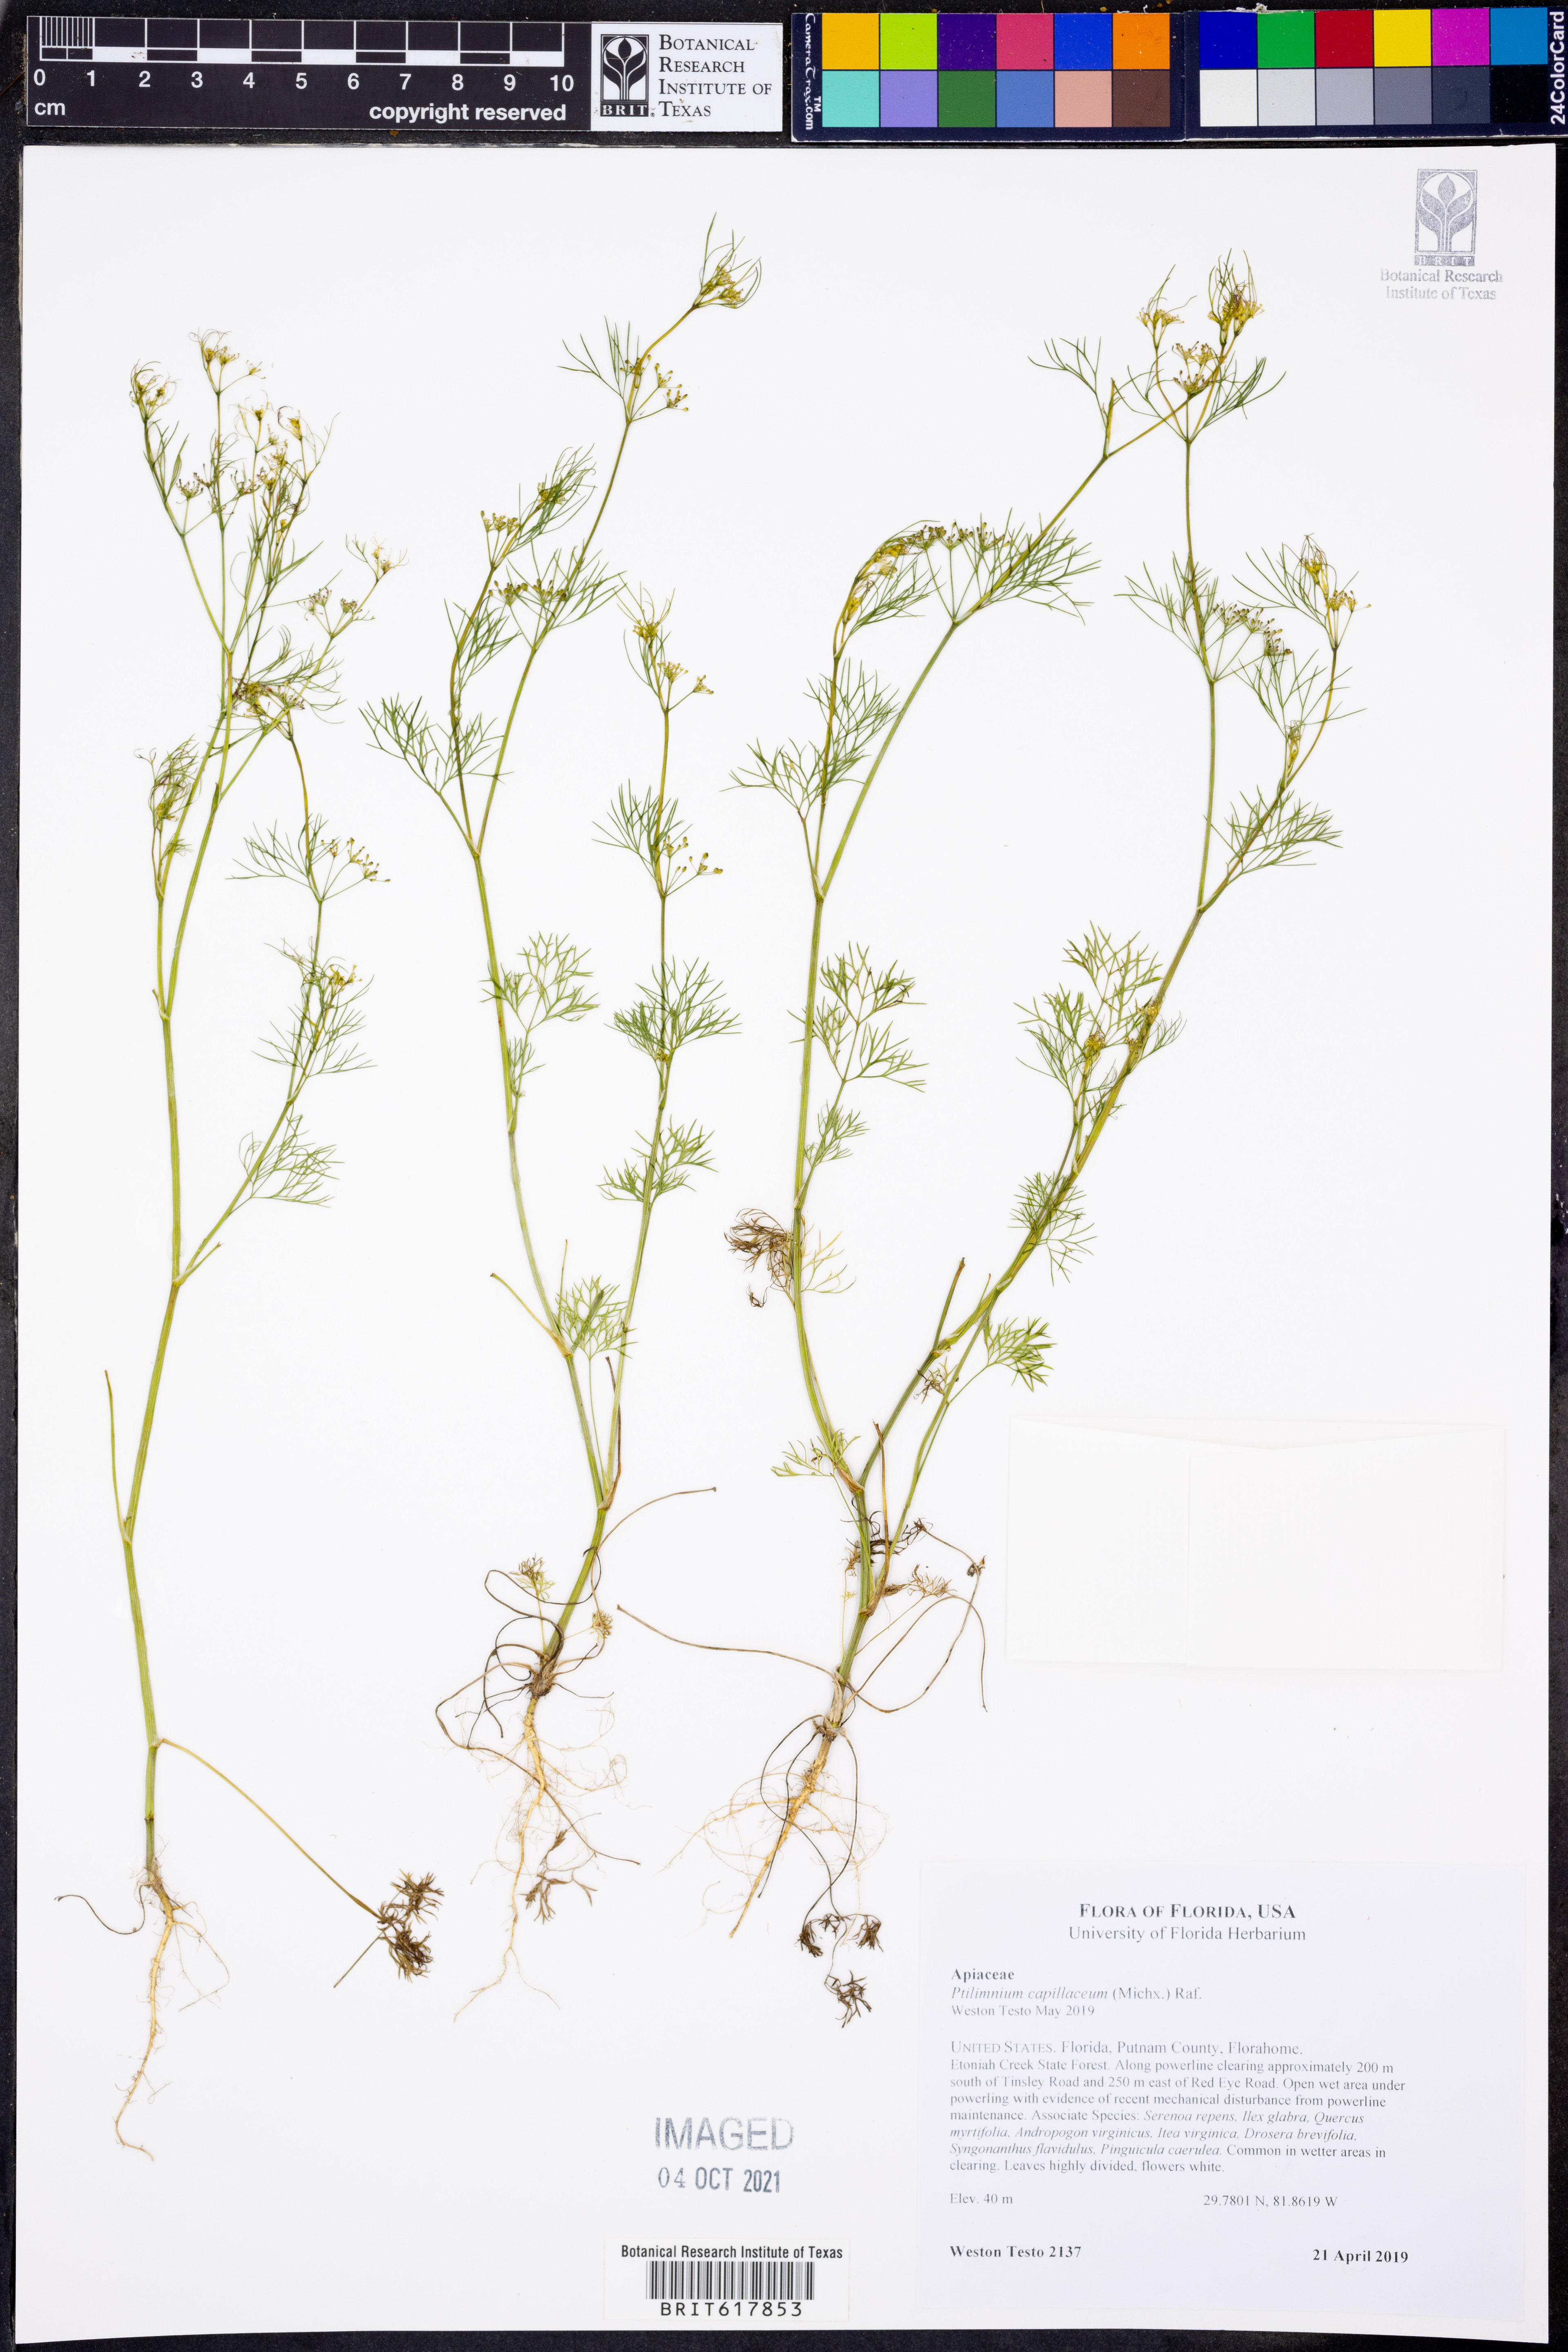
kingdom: Plantae
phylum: Tracheophyta
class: Magnoliopsida
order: Apiales
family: Apiaceae
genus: Ptilimnium
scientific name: Ptilimnium capillaceum
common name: Herbwilliam
